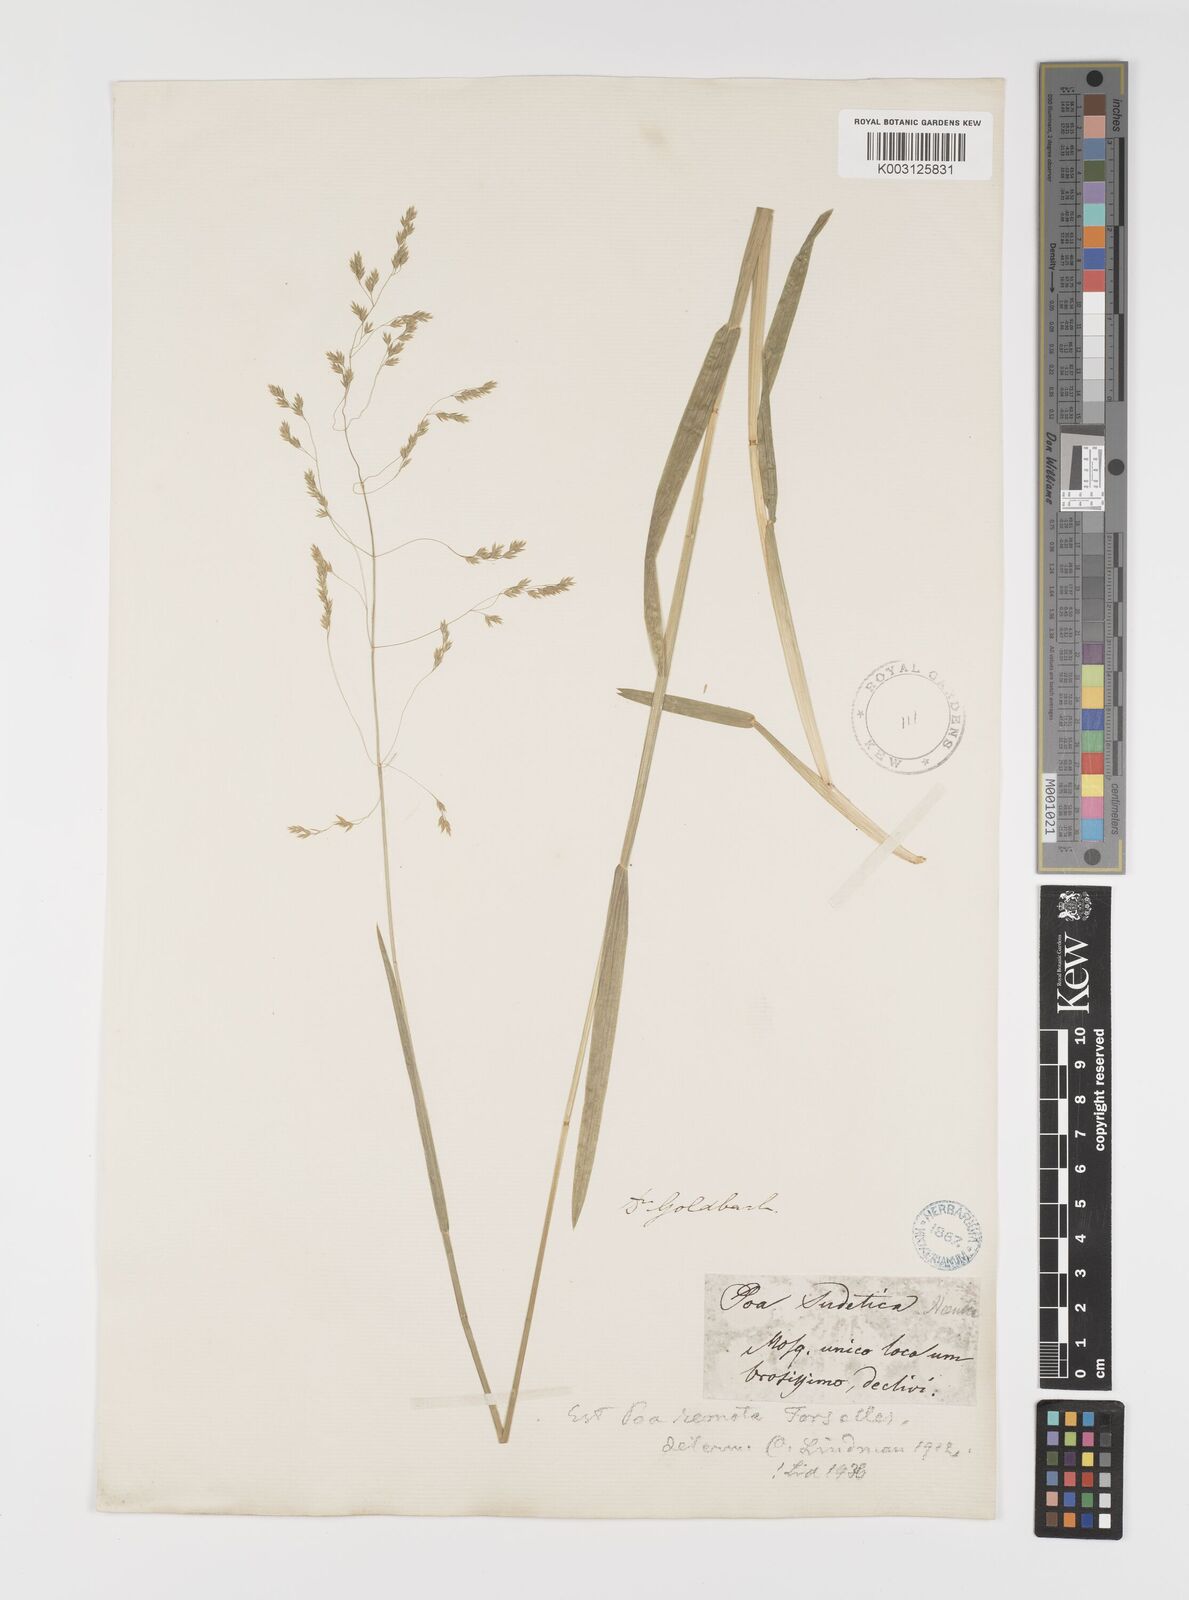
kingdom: Plantae
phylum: Tracheophyta
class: Liliopsida
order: Poales
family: Poaceae
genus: Poa
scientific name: Poa remota
